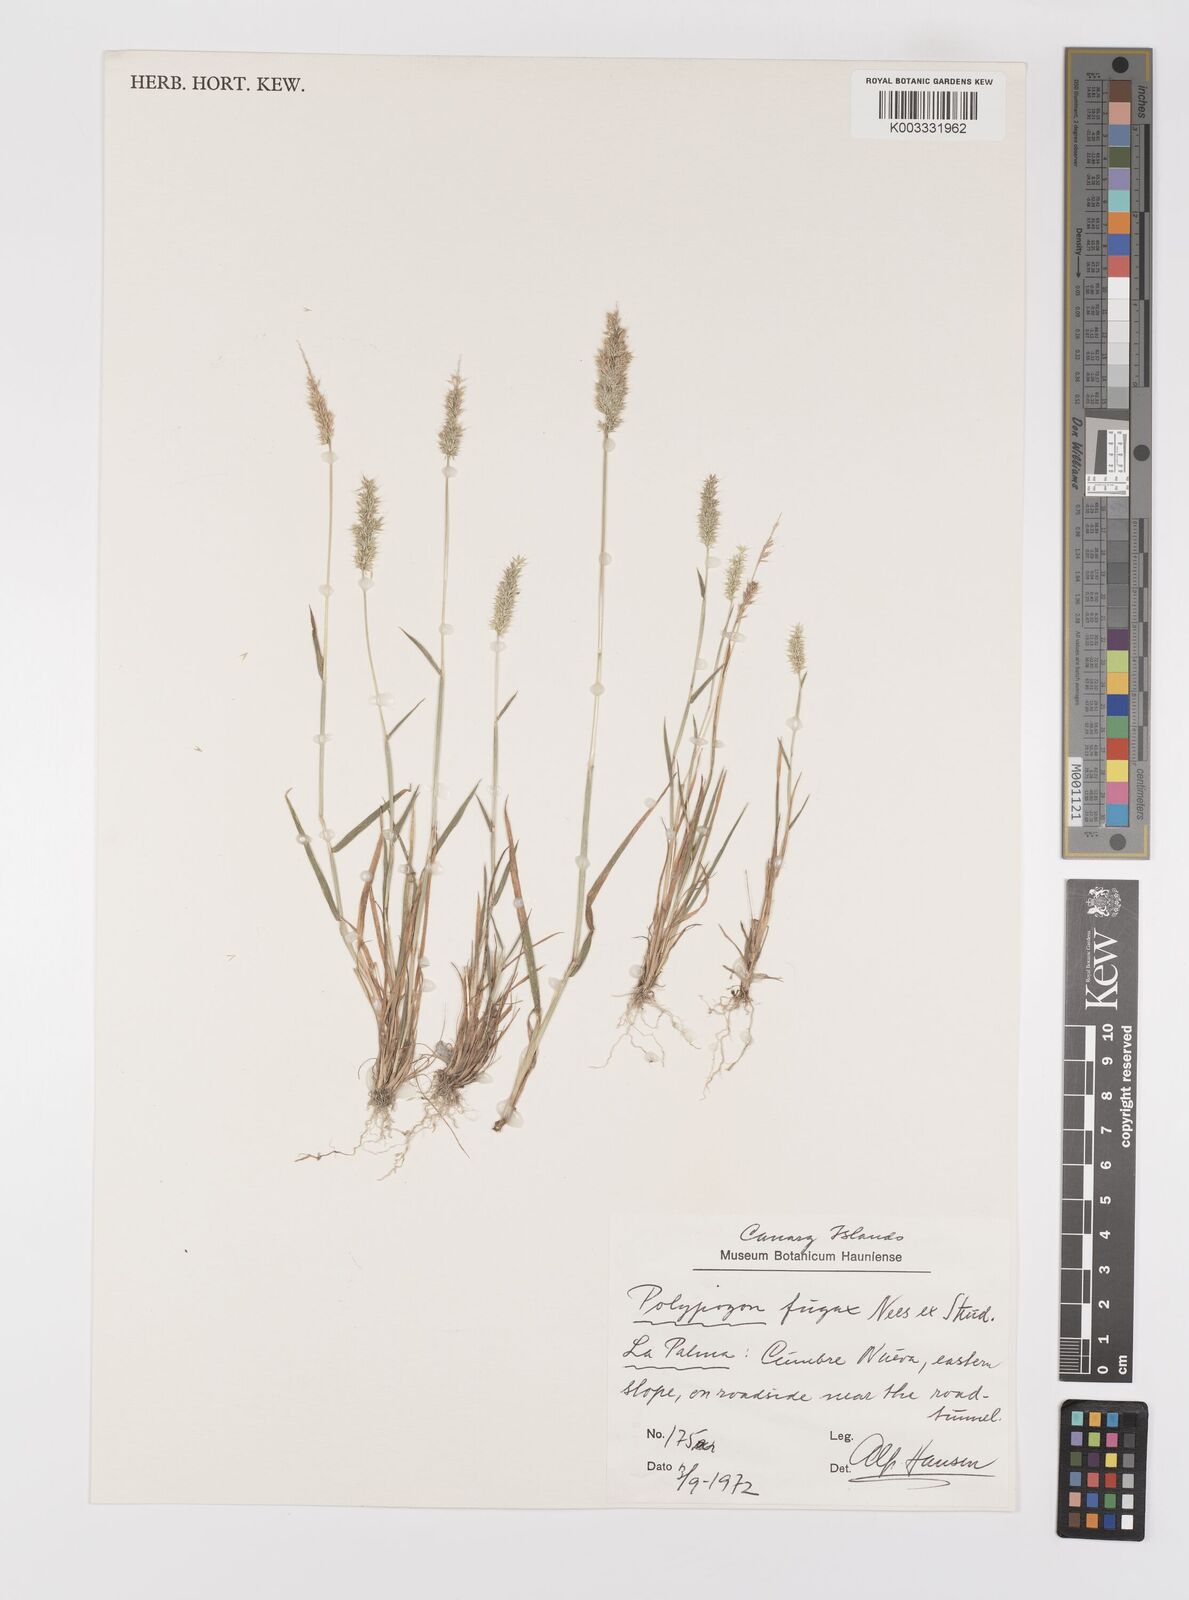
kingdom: Plantae
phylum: Tracheophyta
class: Liliopsida
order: Poales
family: Poaceae
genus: Polypogon
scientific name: Polypogon fugax
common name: Asia minor bluegrass
